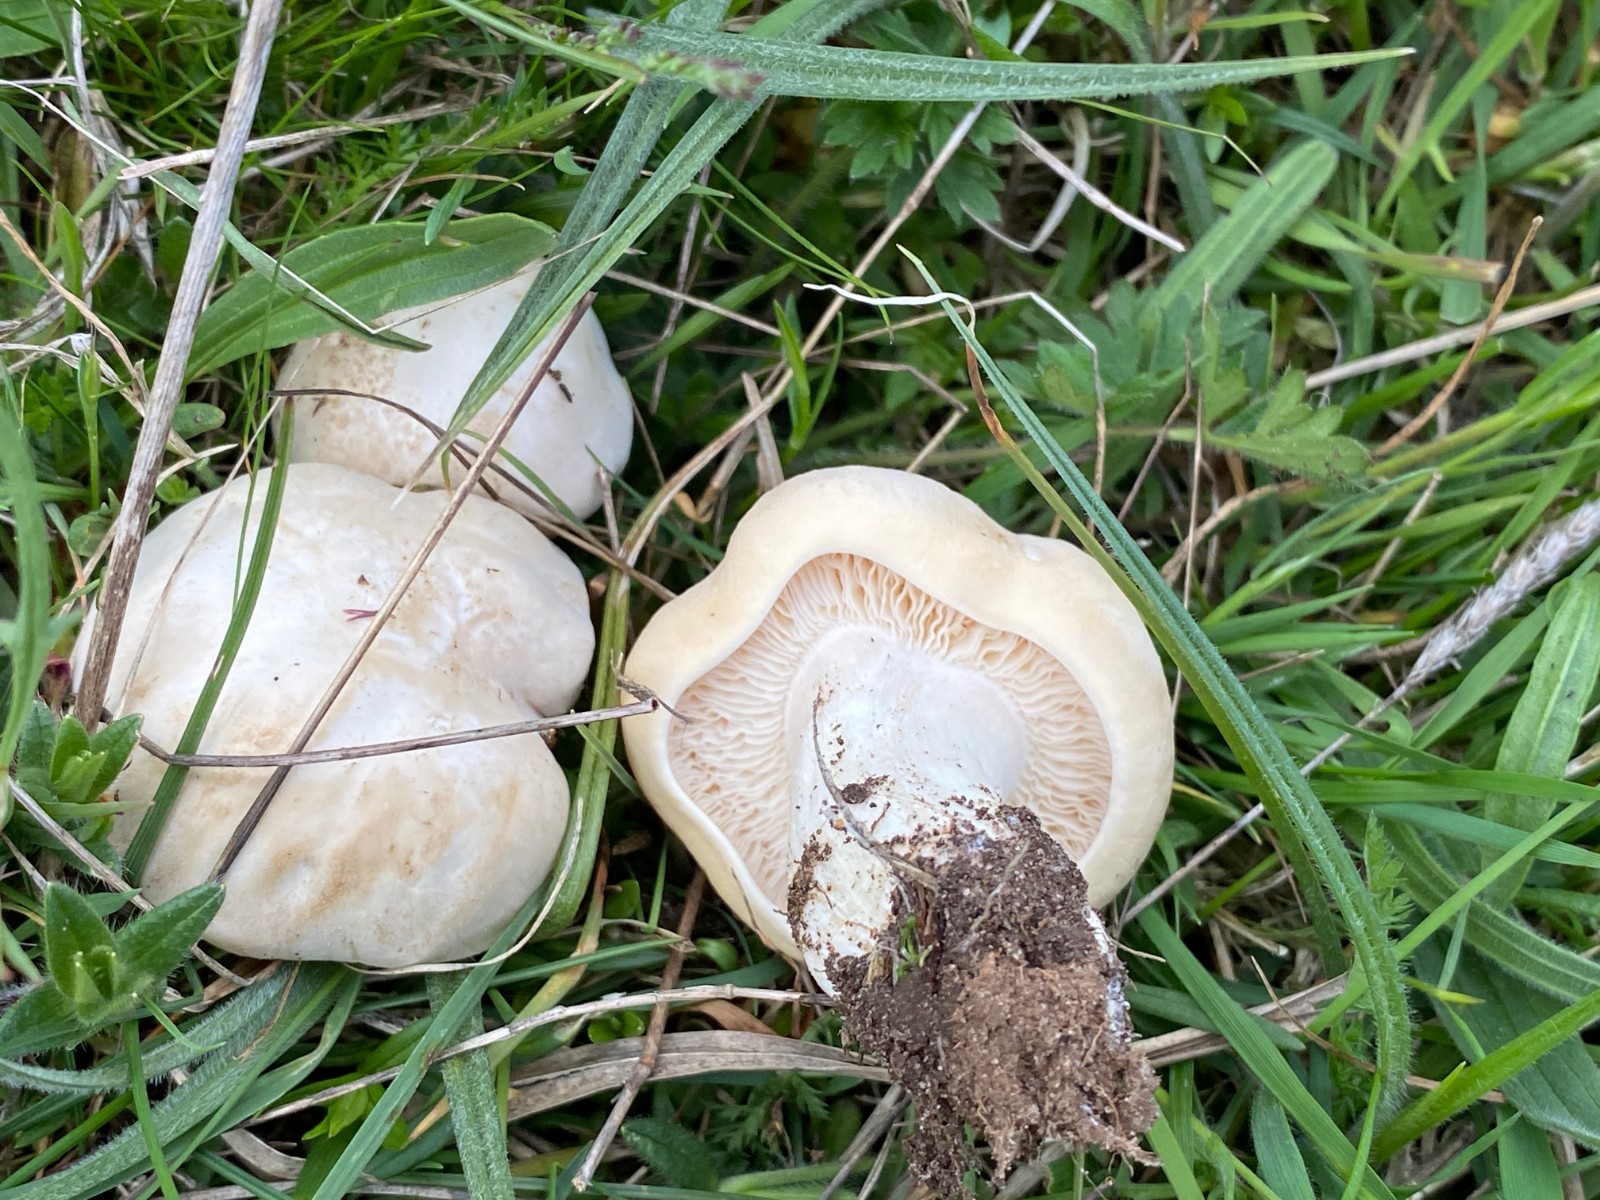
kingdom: Fungi
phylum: Basidiomycota
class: Agaricomycetes
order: Agaricales
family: Lyophyllaceae
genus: Calocybe
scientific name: Calocybe gambosa
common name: vårmusseron
